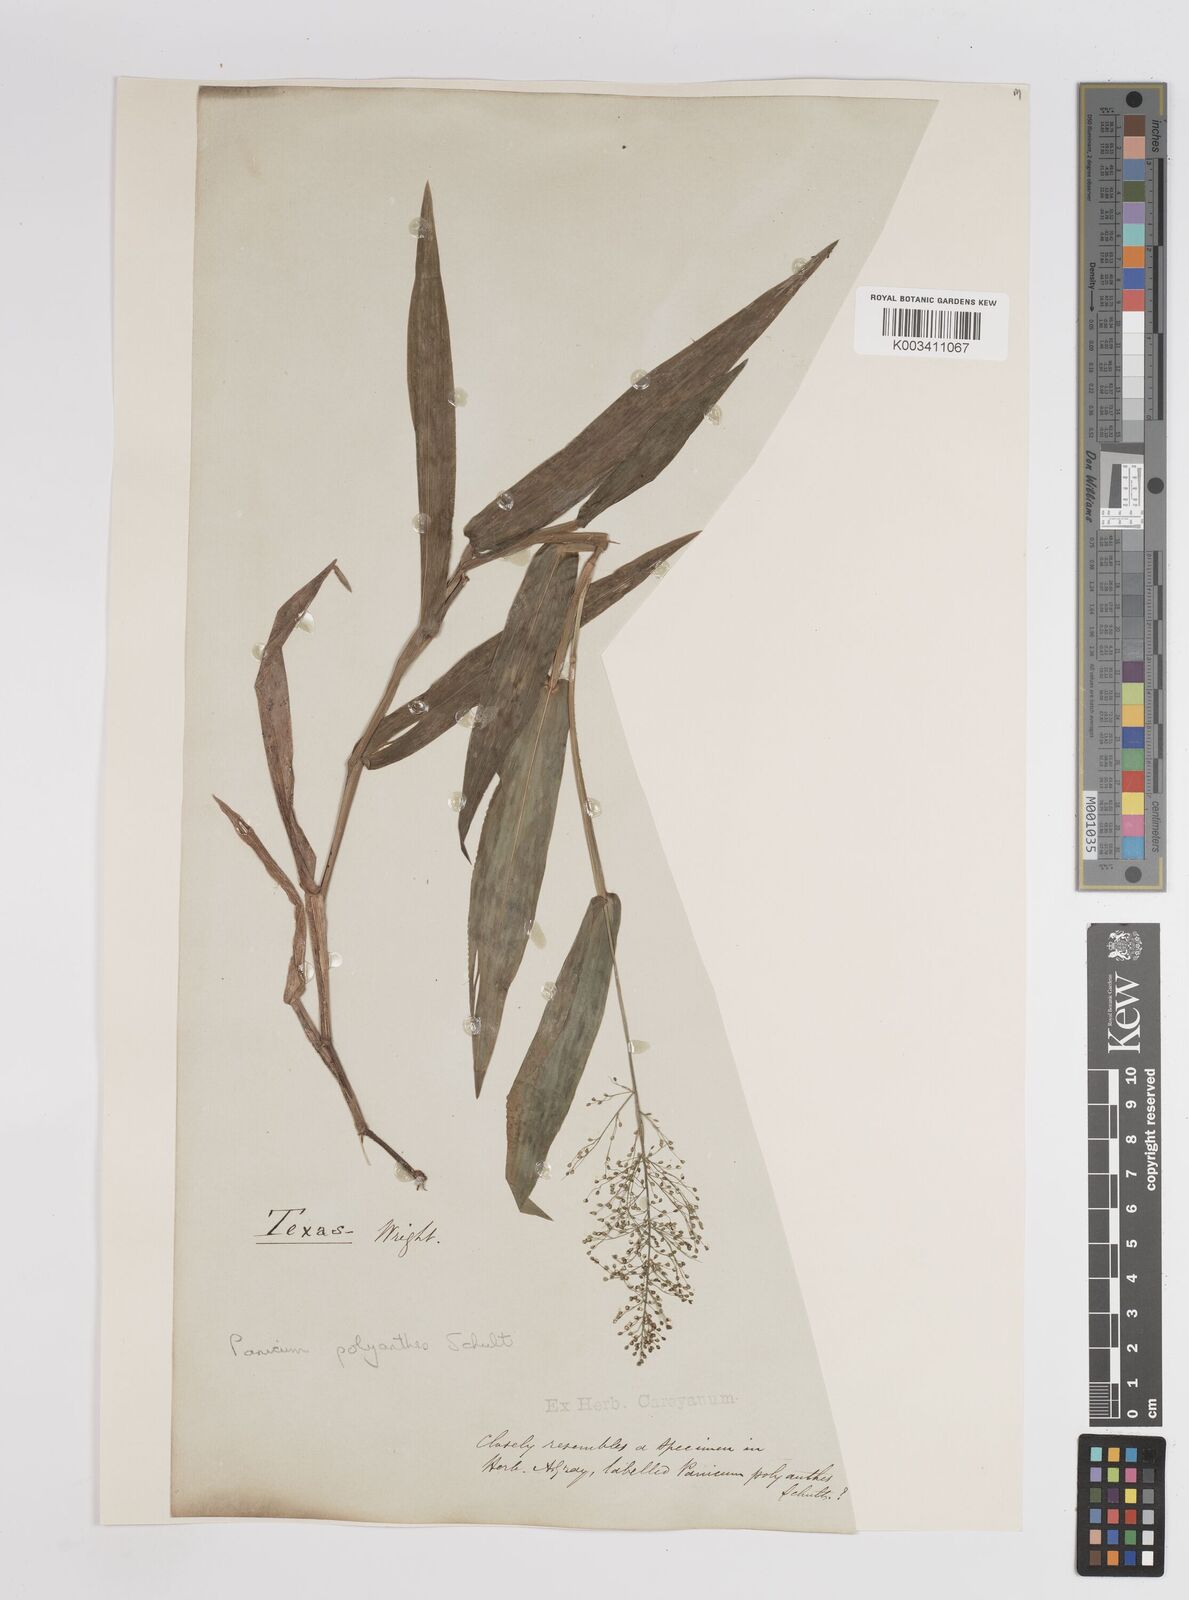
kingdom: Plantae
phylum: Tracheophyta
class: Liliopsida
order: Poales
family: Poaceae
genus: Dichanthelium
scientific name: Dichanthelium polyanthes
